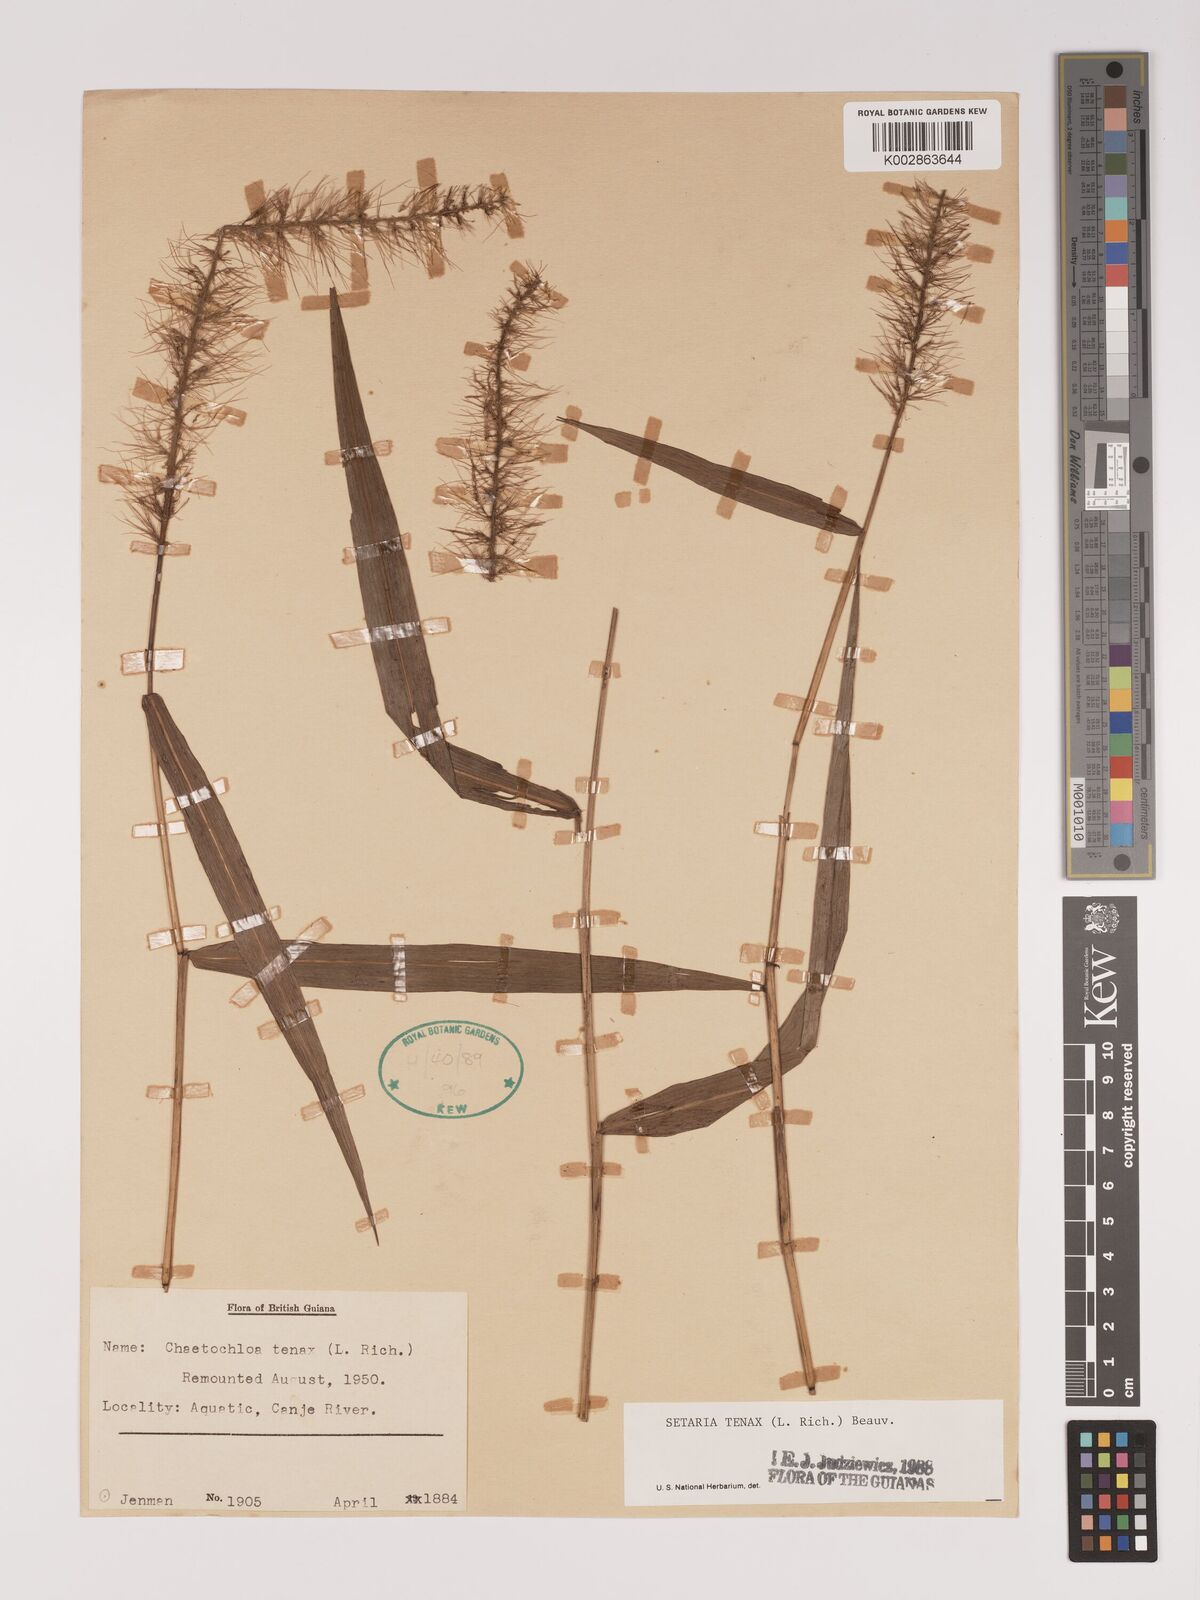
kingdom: Plantae
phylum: Tracheophyta
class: Liliopsida
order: Poales
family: Poaceae
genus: Setaria
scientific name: Setaria tenax
